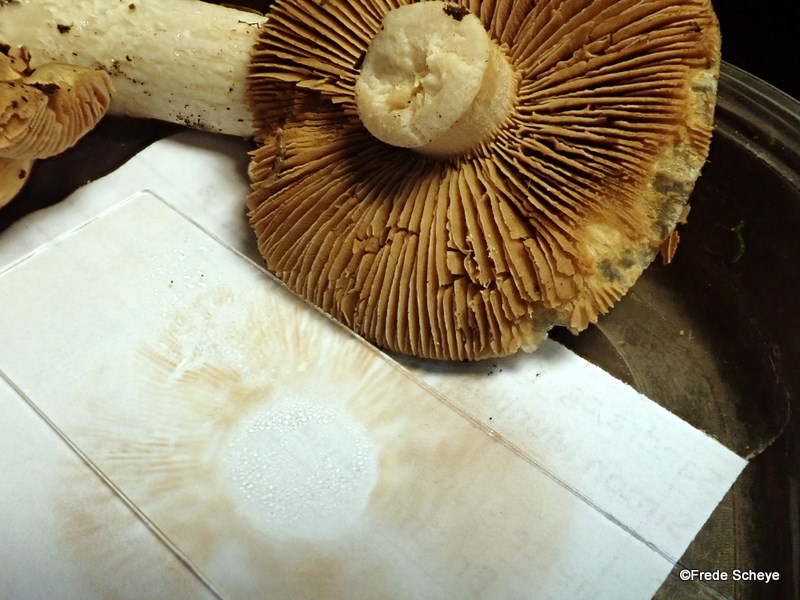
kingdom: Fungi
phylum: Basidiomycota
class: Agaricomycetes
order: Agaricales
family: Cortinariaceae
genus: Cortinarius
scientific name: Cortinarius elatior
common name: høj slørhat
